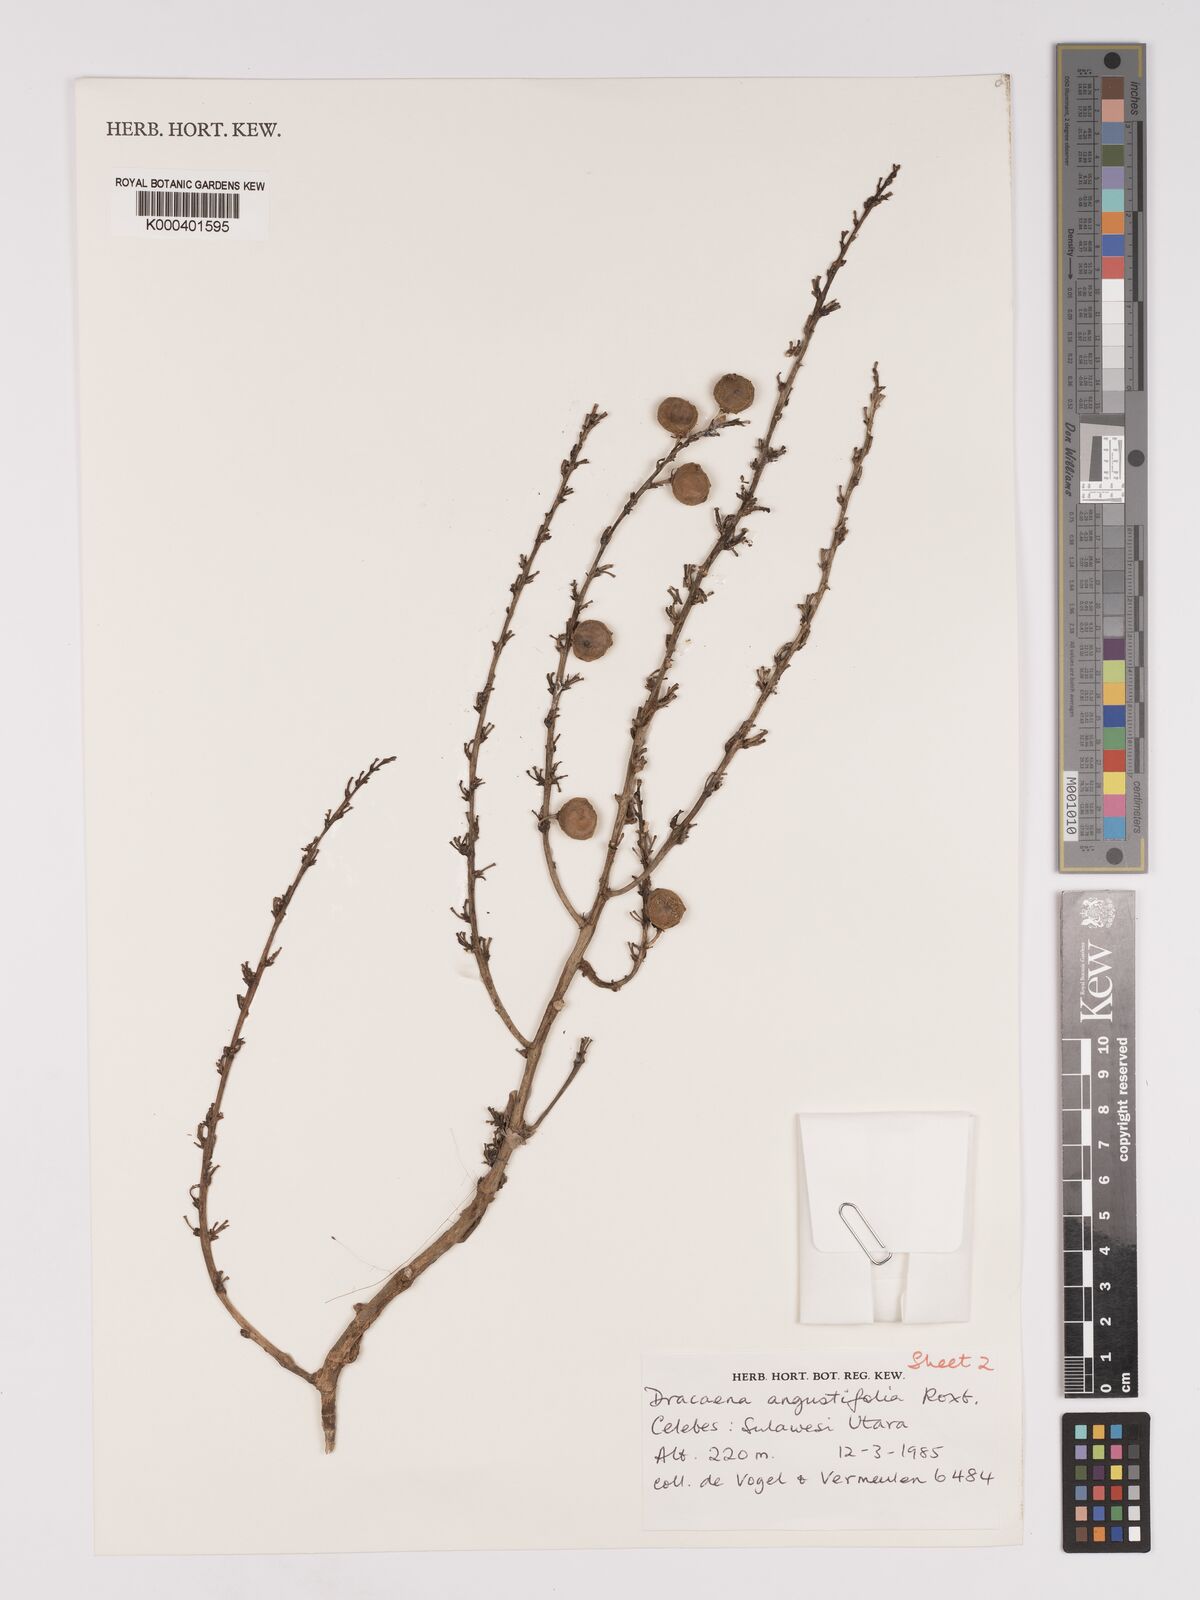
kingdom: Plantae
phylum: Tracheophyta
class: Liliopsida
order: Asparagales
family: Asparagaceae
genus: Dracaena
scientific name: Dracaena angustifolia
